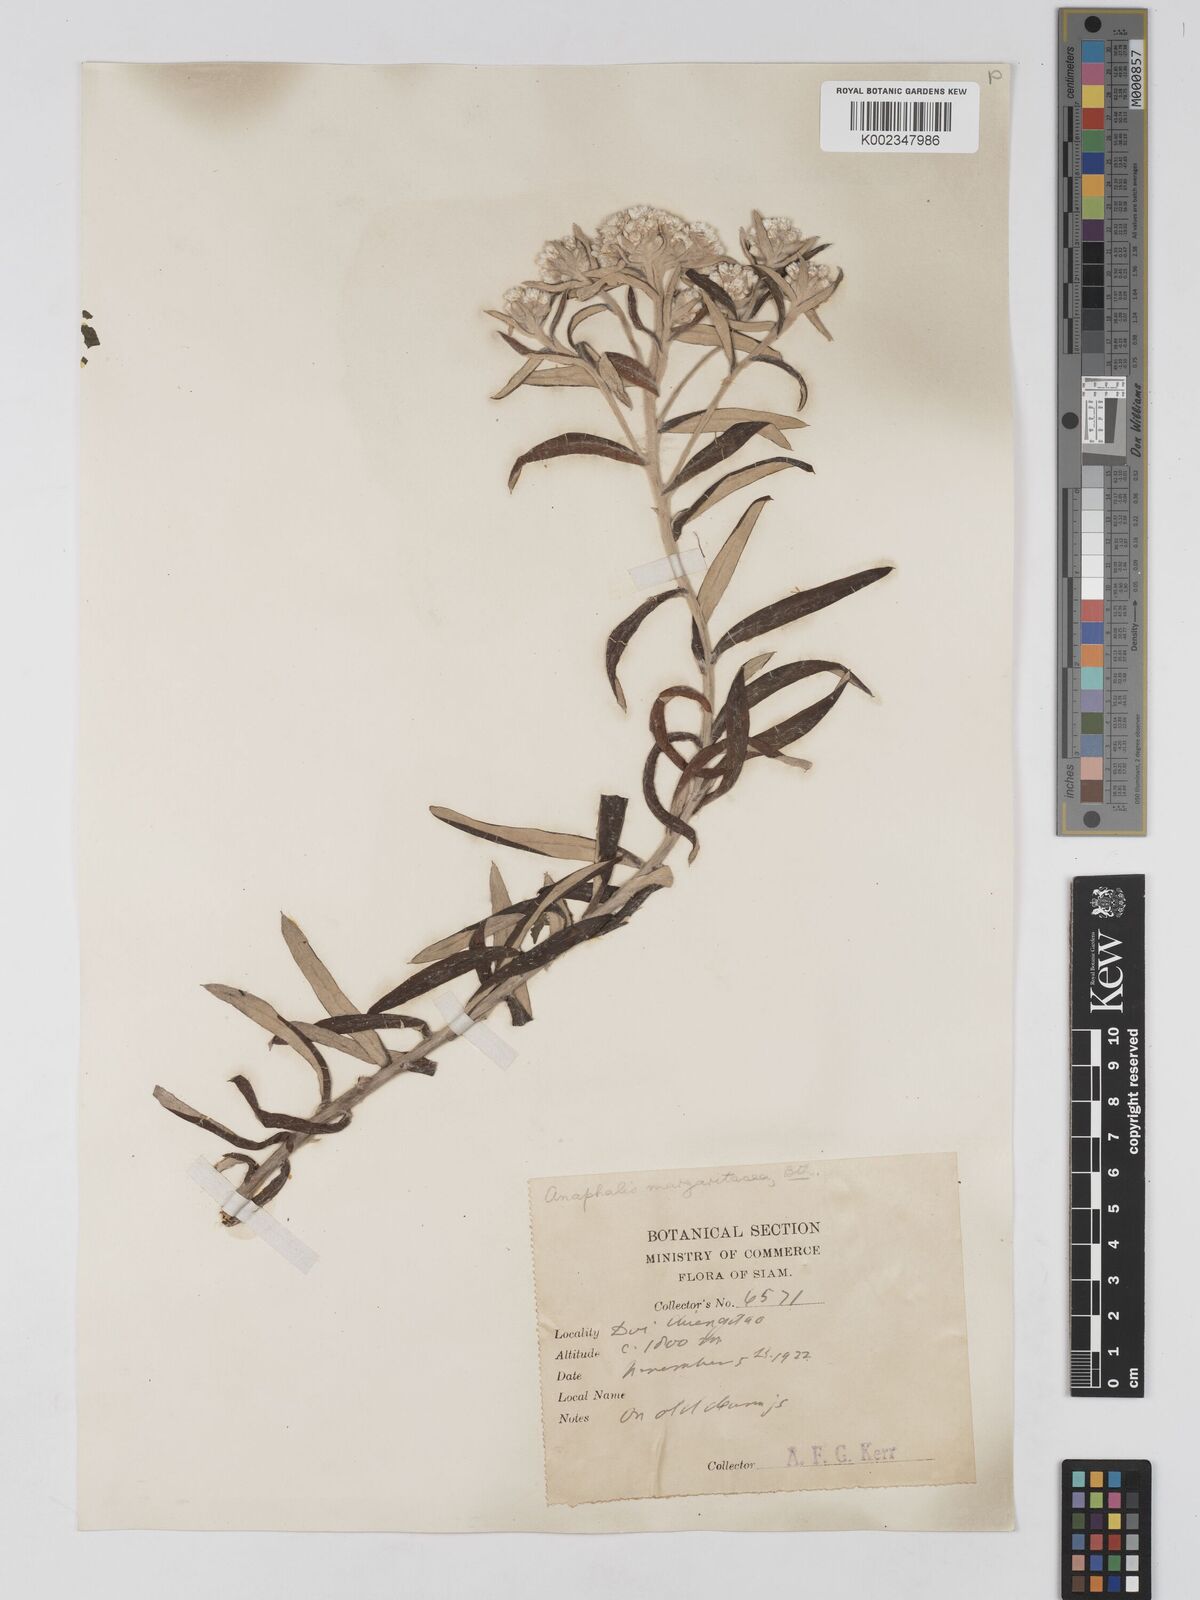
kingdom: Plantae
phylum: Tracheophyta
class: Magnoliopsida
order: Asterales
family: Asteraceae
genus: Anaphalis
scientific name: Anaphalis margaritacea
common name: Pearly everlasting
